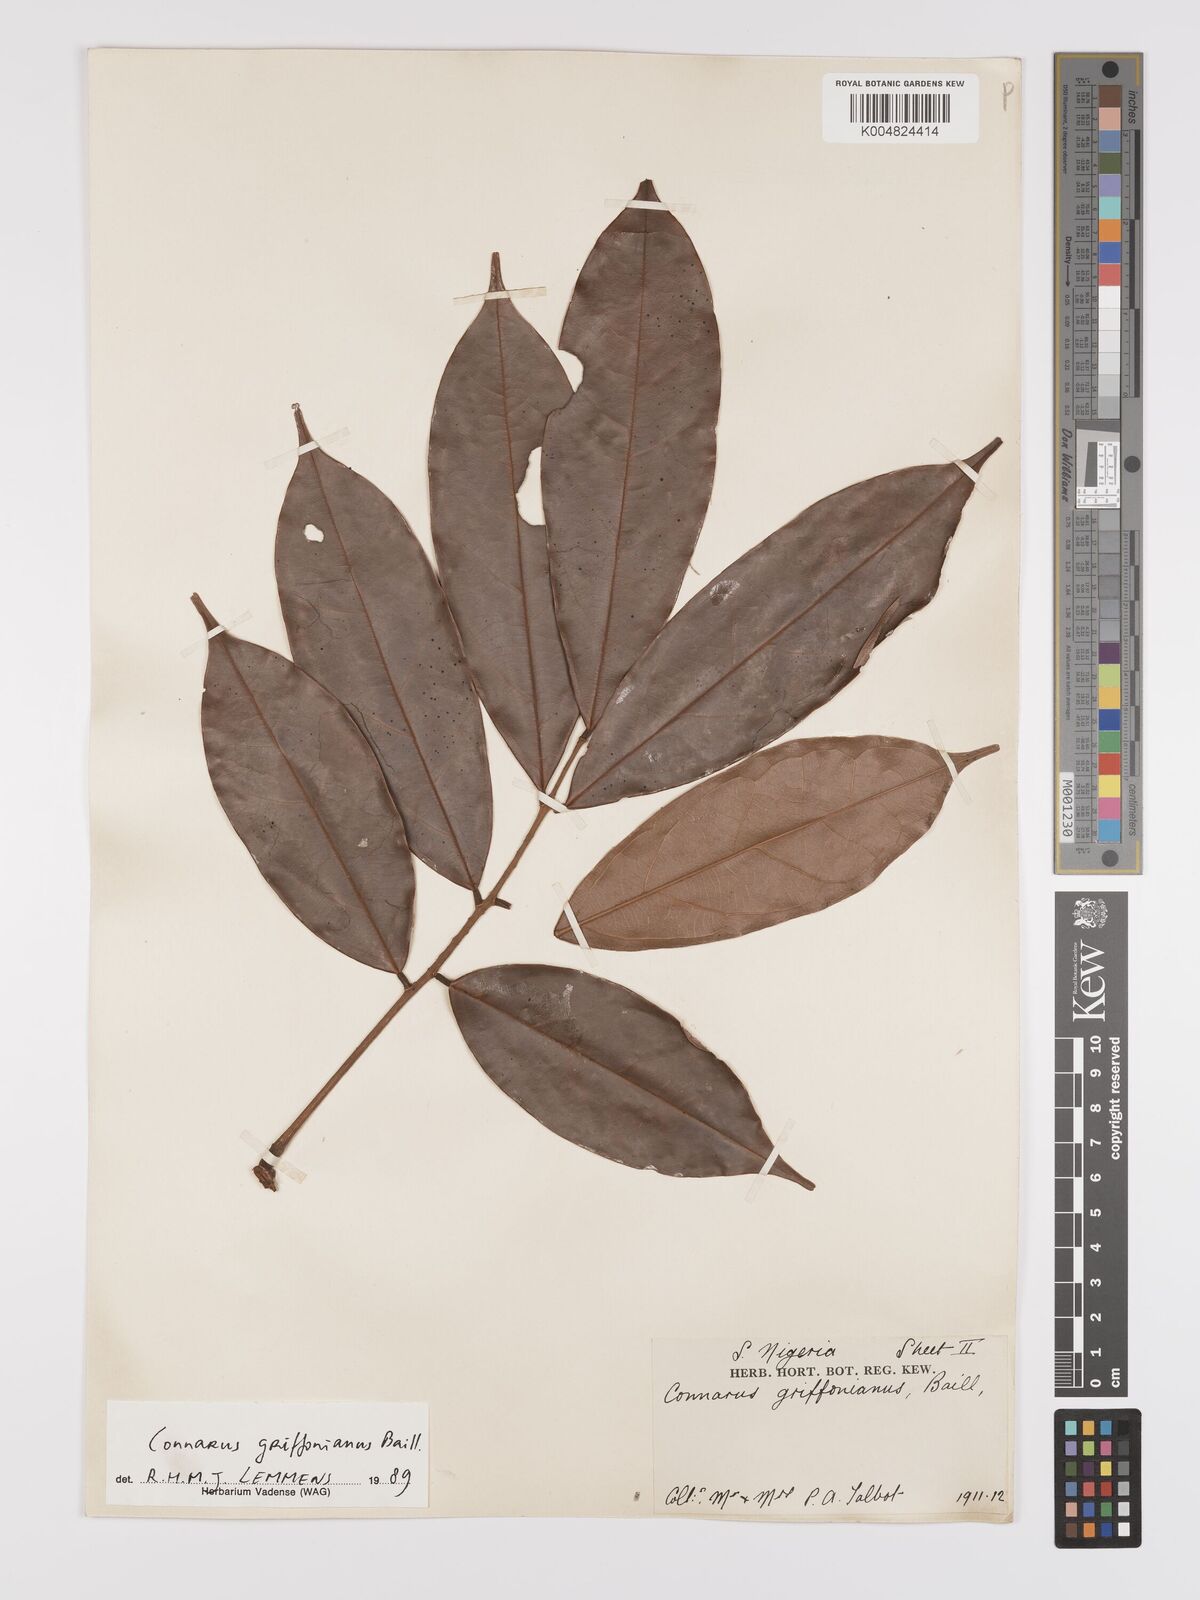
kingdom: Plantae
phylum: Tracheophyta
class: Magnoliopsida
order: Oxalidales
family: Connaraceae
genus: Connarus
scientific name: Connarus griffonianus
